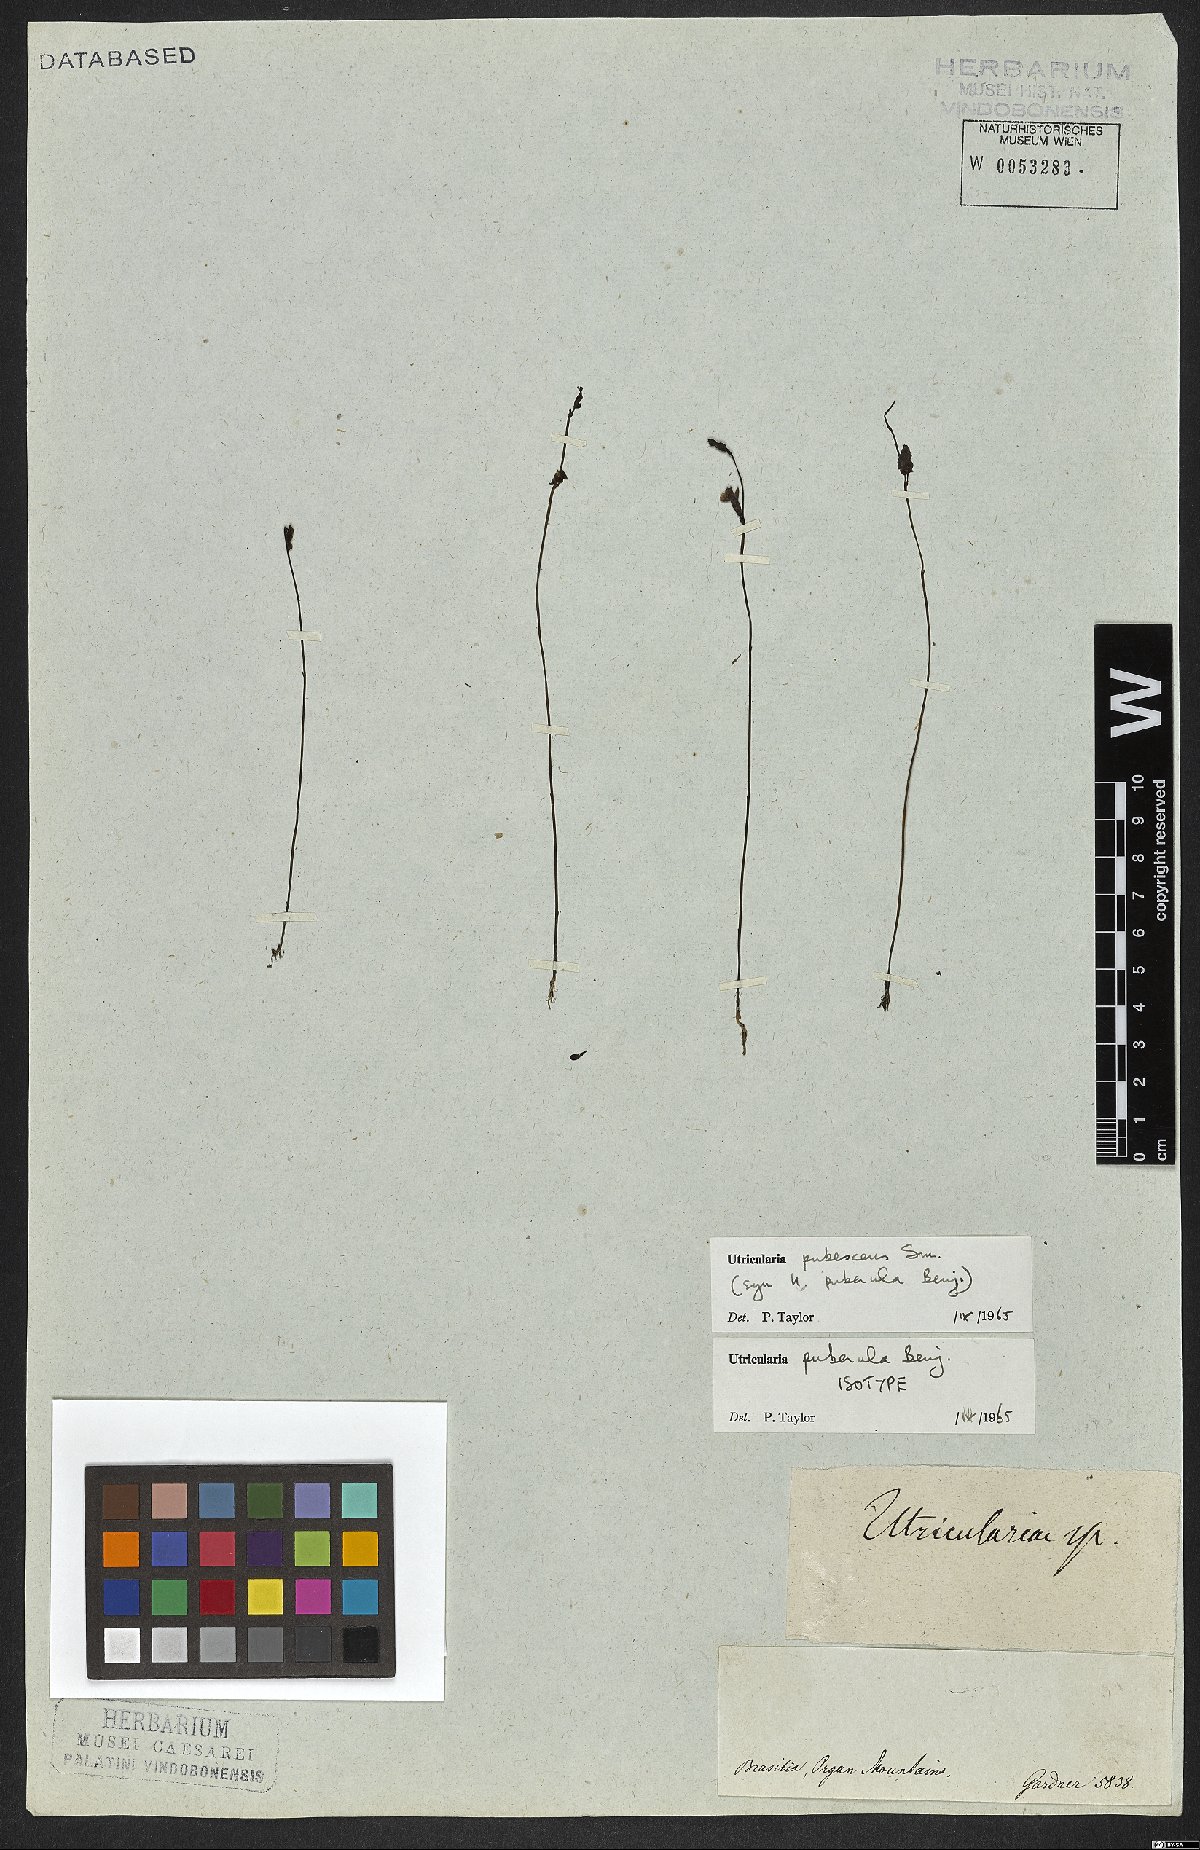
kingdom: Plantae
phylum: Tracheophyta
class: Magnoliopsida
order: Lamiales
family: Lentibulariaceae
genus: Utricularia
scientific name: Utricularia pubescens
